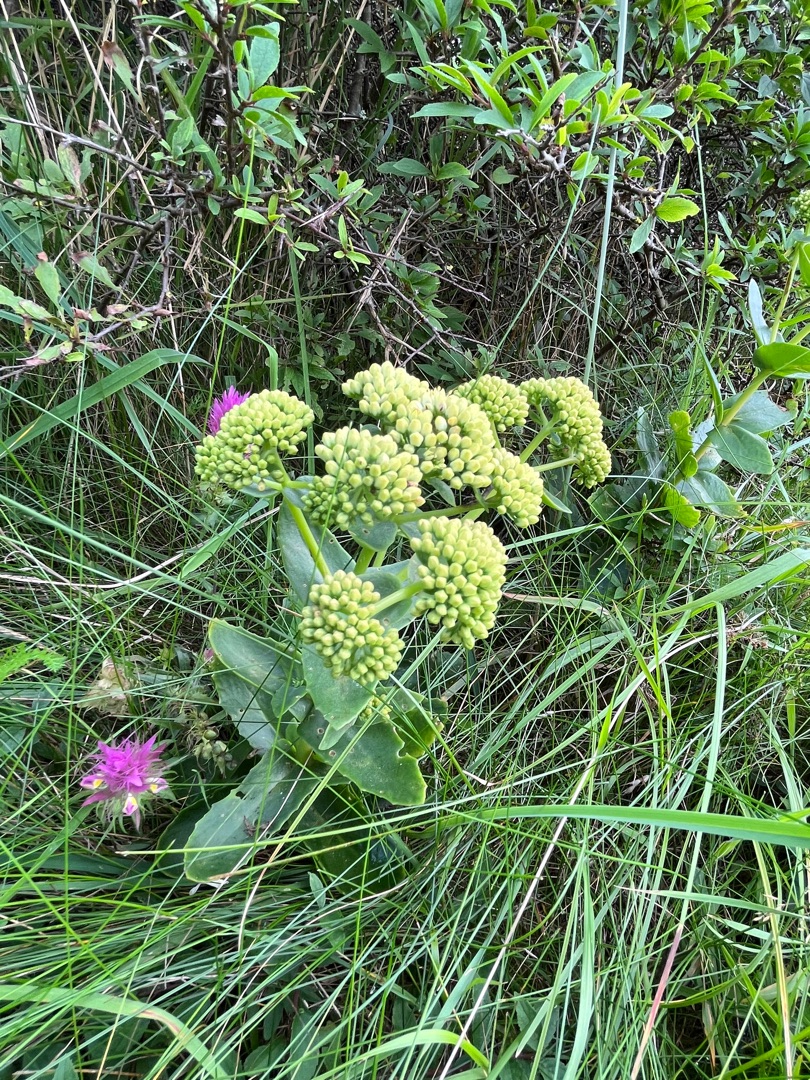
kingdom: Plantae
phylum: Tracheophyta
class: Magnoliopsida
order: Saxifragales
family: Crassulaceae
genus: Hylotelephium
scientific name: Hylotelephium maximum
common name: Almindelig sankthansurt
